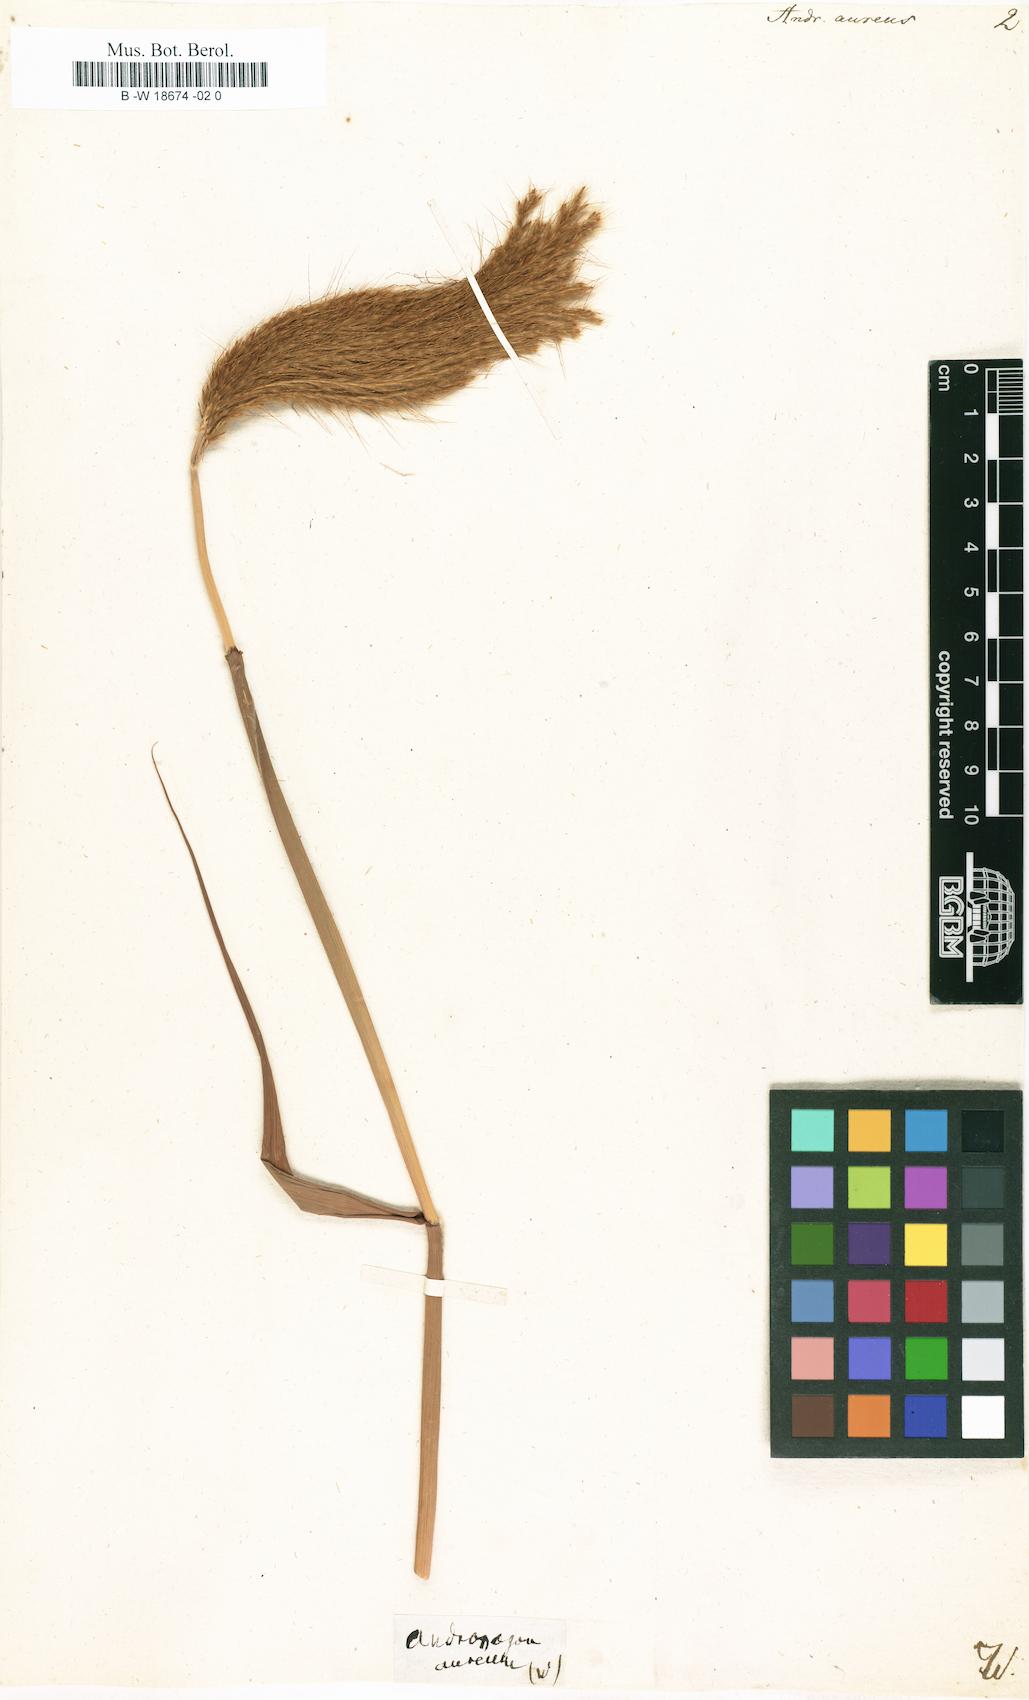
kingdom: Plantae
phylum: Tracheophyta
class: Liliopsida
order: Poales
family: Poaceae
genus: Andropogon
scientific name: Andropogon aureus
